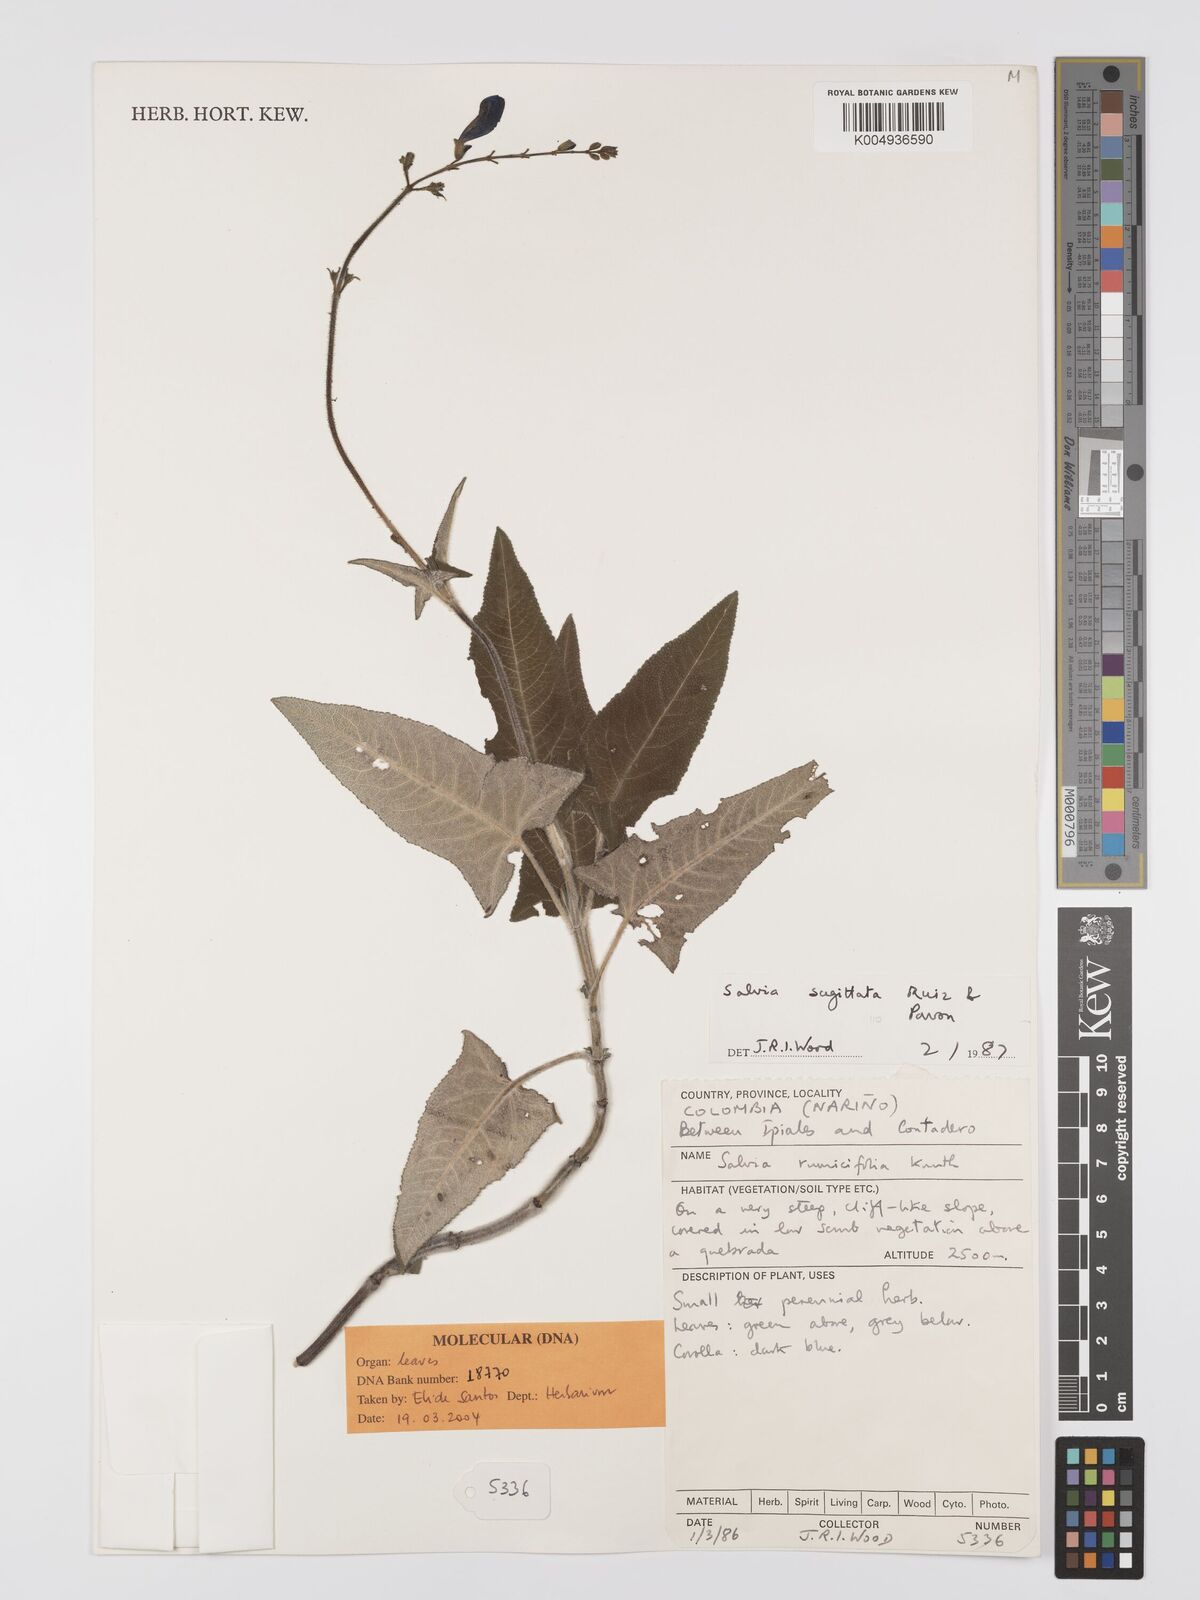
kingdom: Plantae
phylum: Tracheophyta
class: Magnoliopsida
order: Lamiales
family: Lamiaceae
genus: Salvia
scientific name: Salvia sagittata
